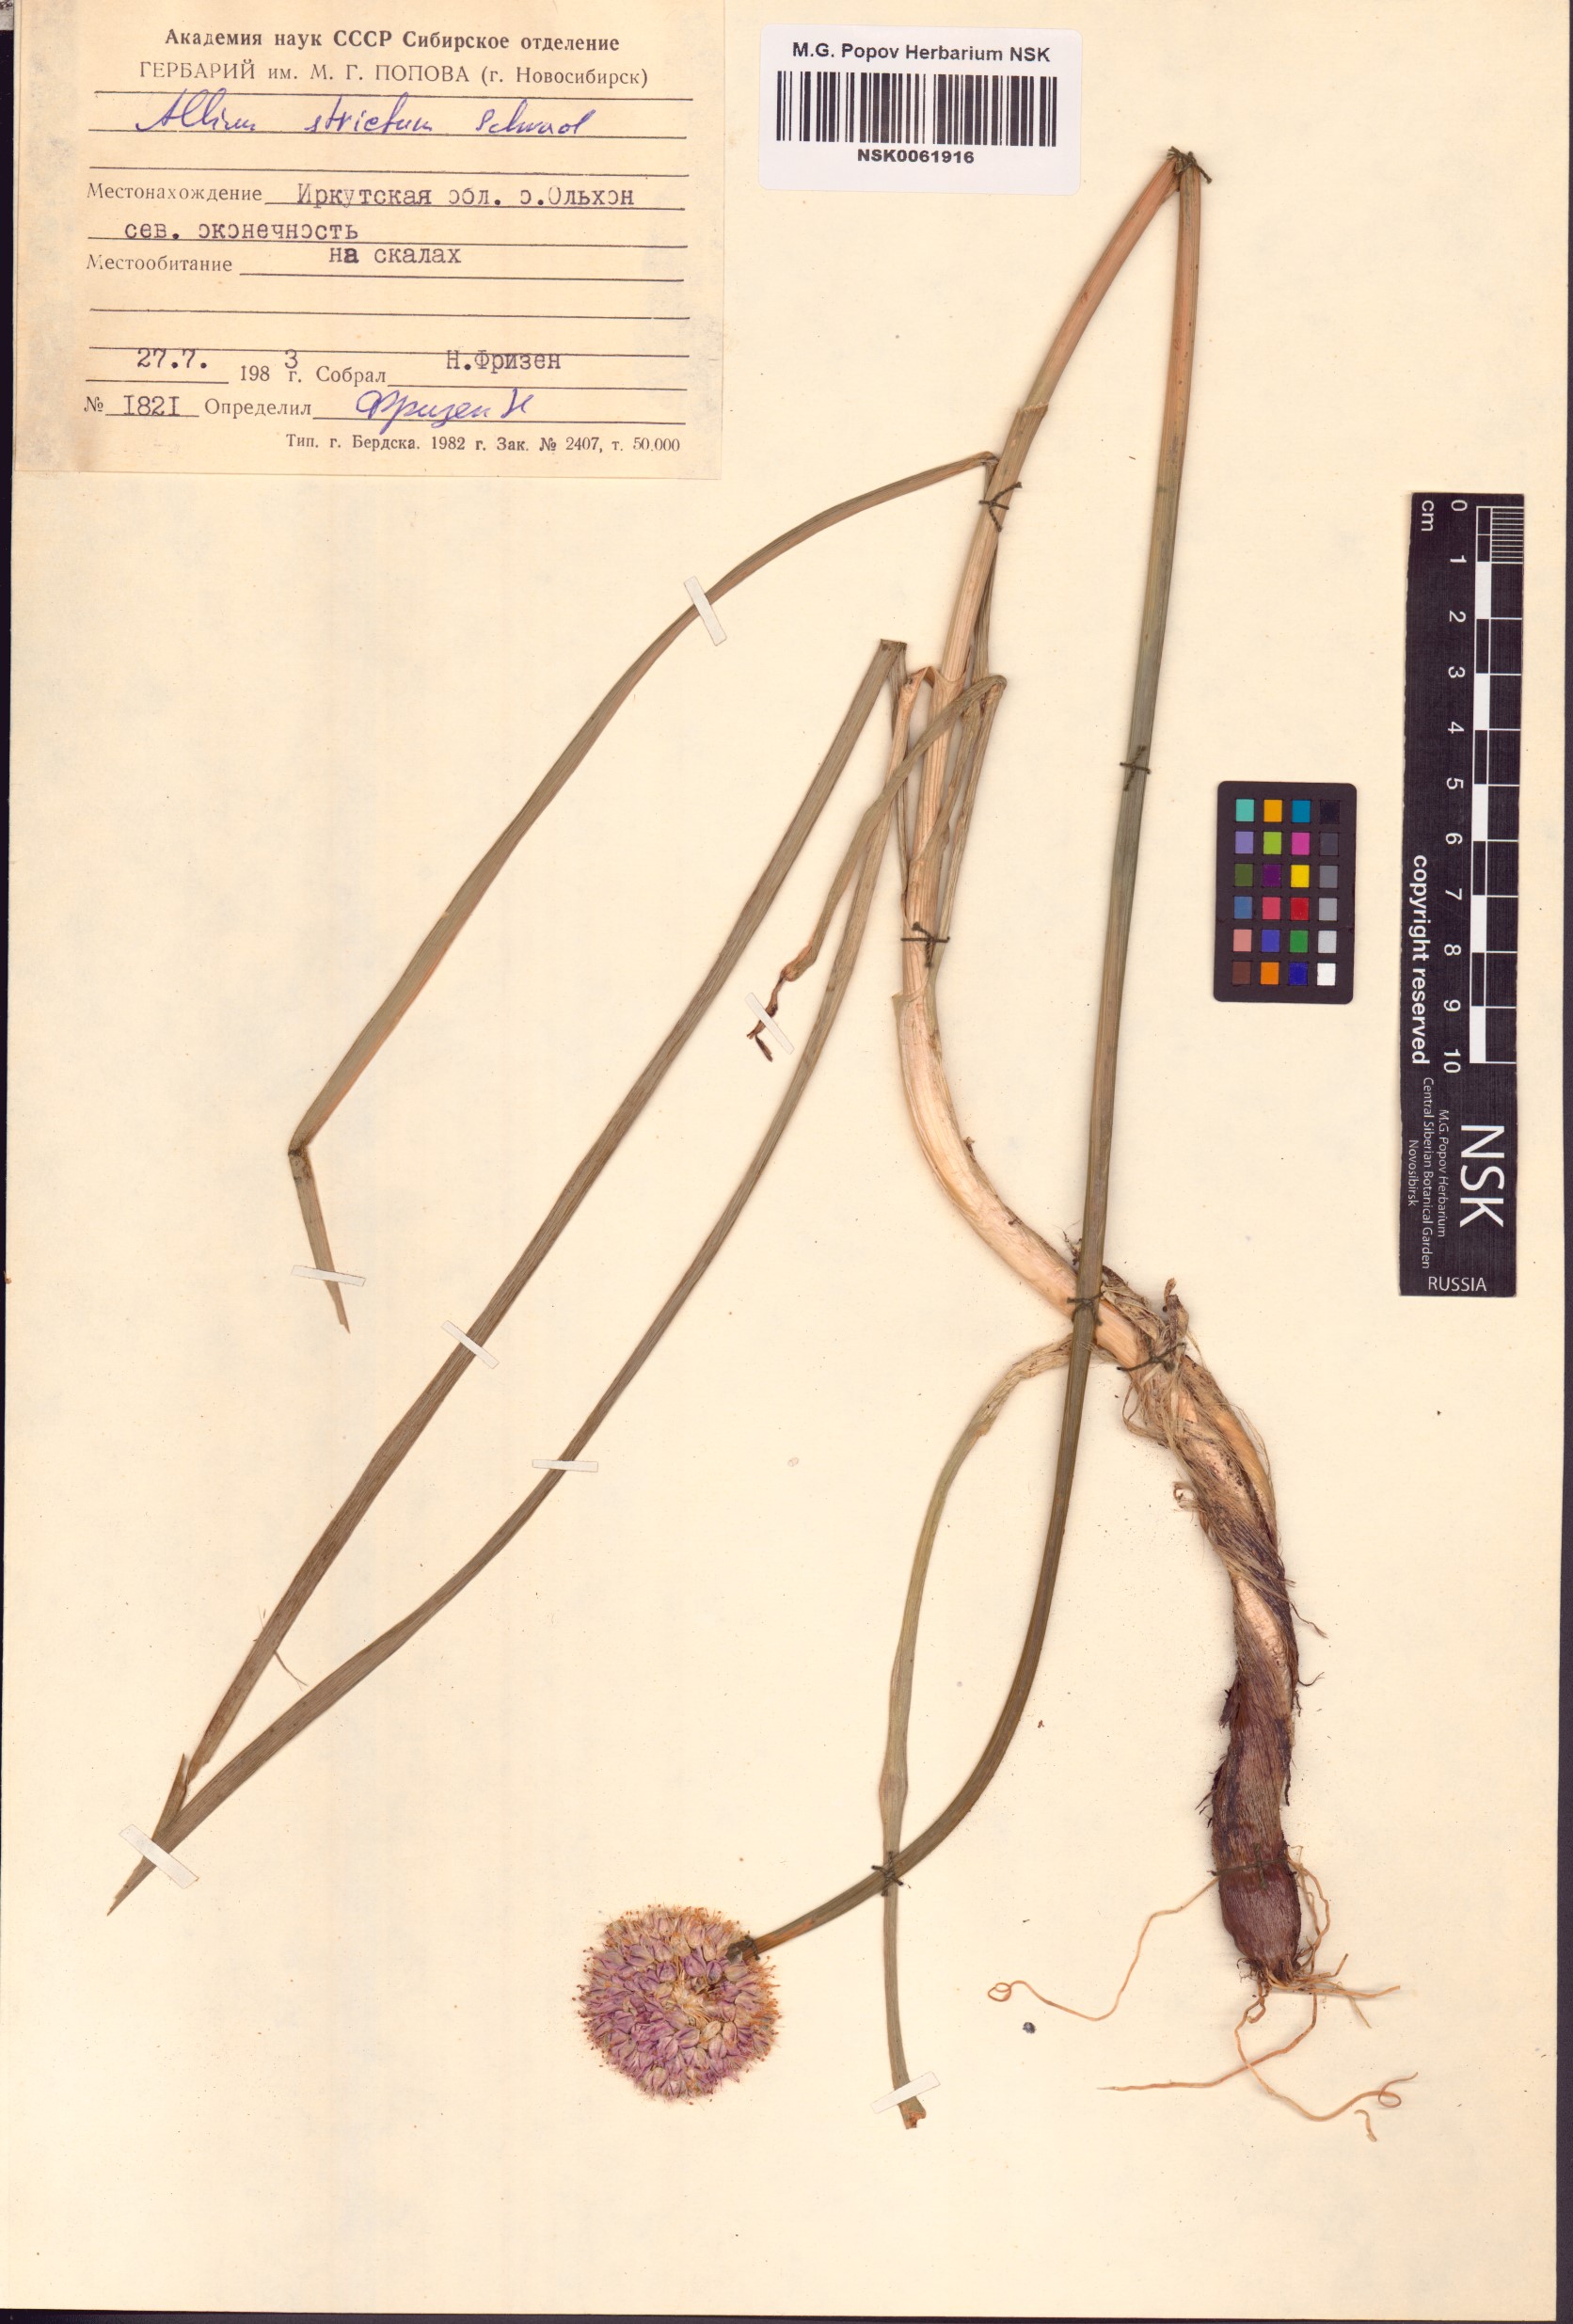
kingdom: Plantae
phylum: Tracheophyta
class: Liliopsida
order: Asparagales
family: Amaryllidaceae
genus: Allium
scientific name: Allium strictum
